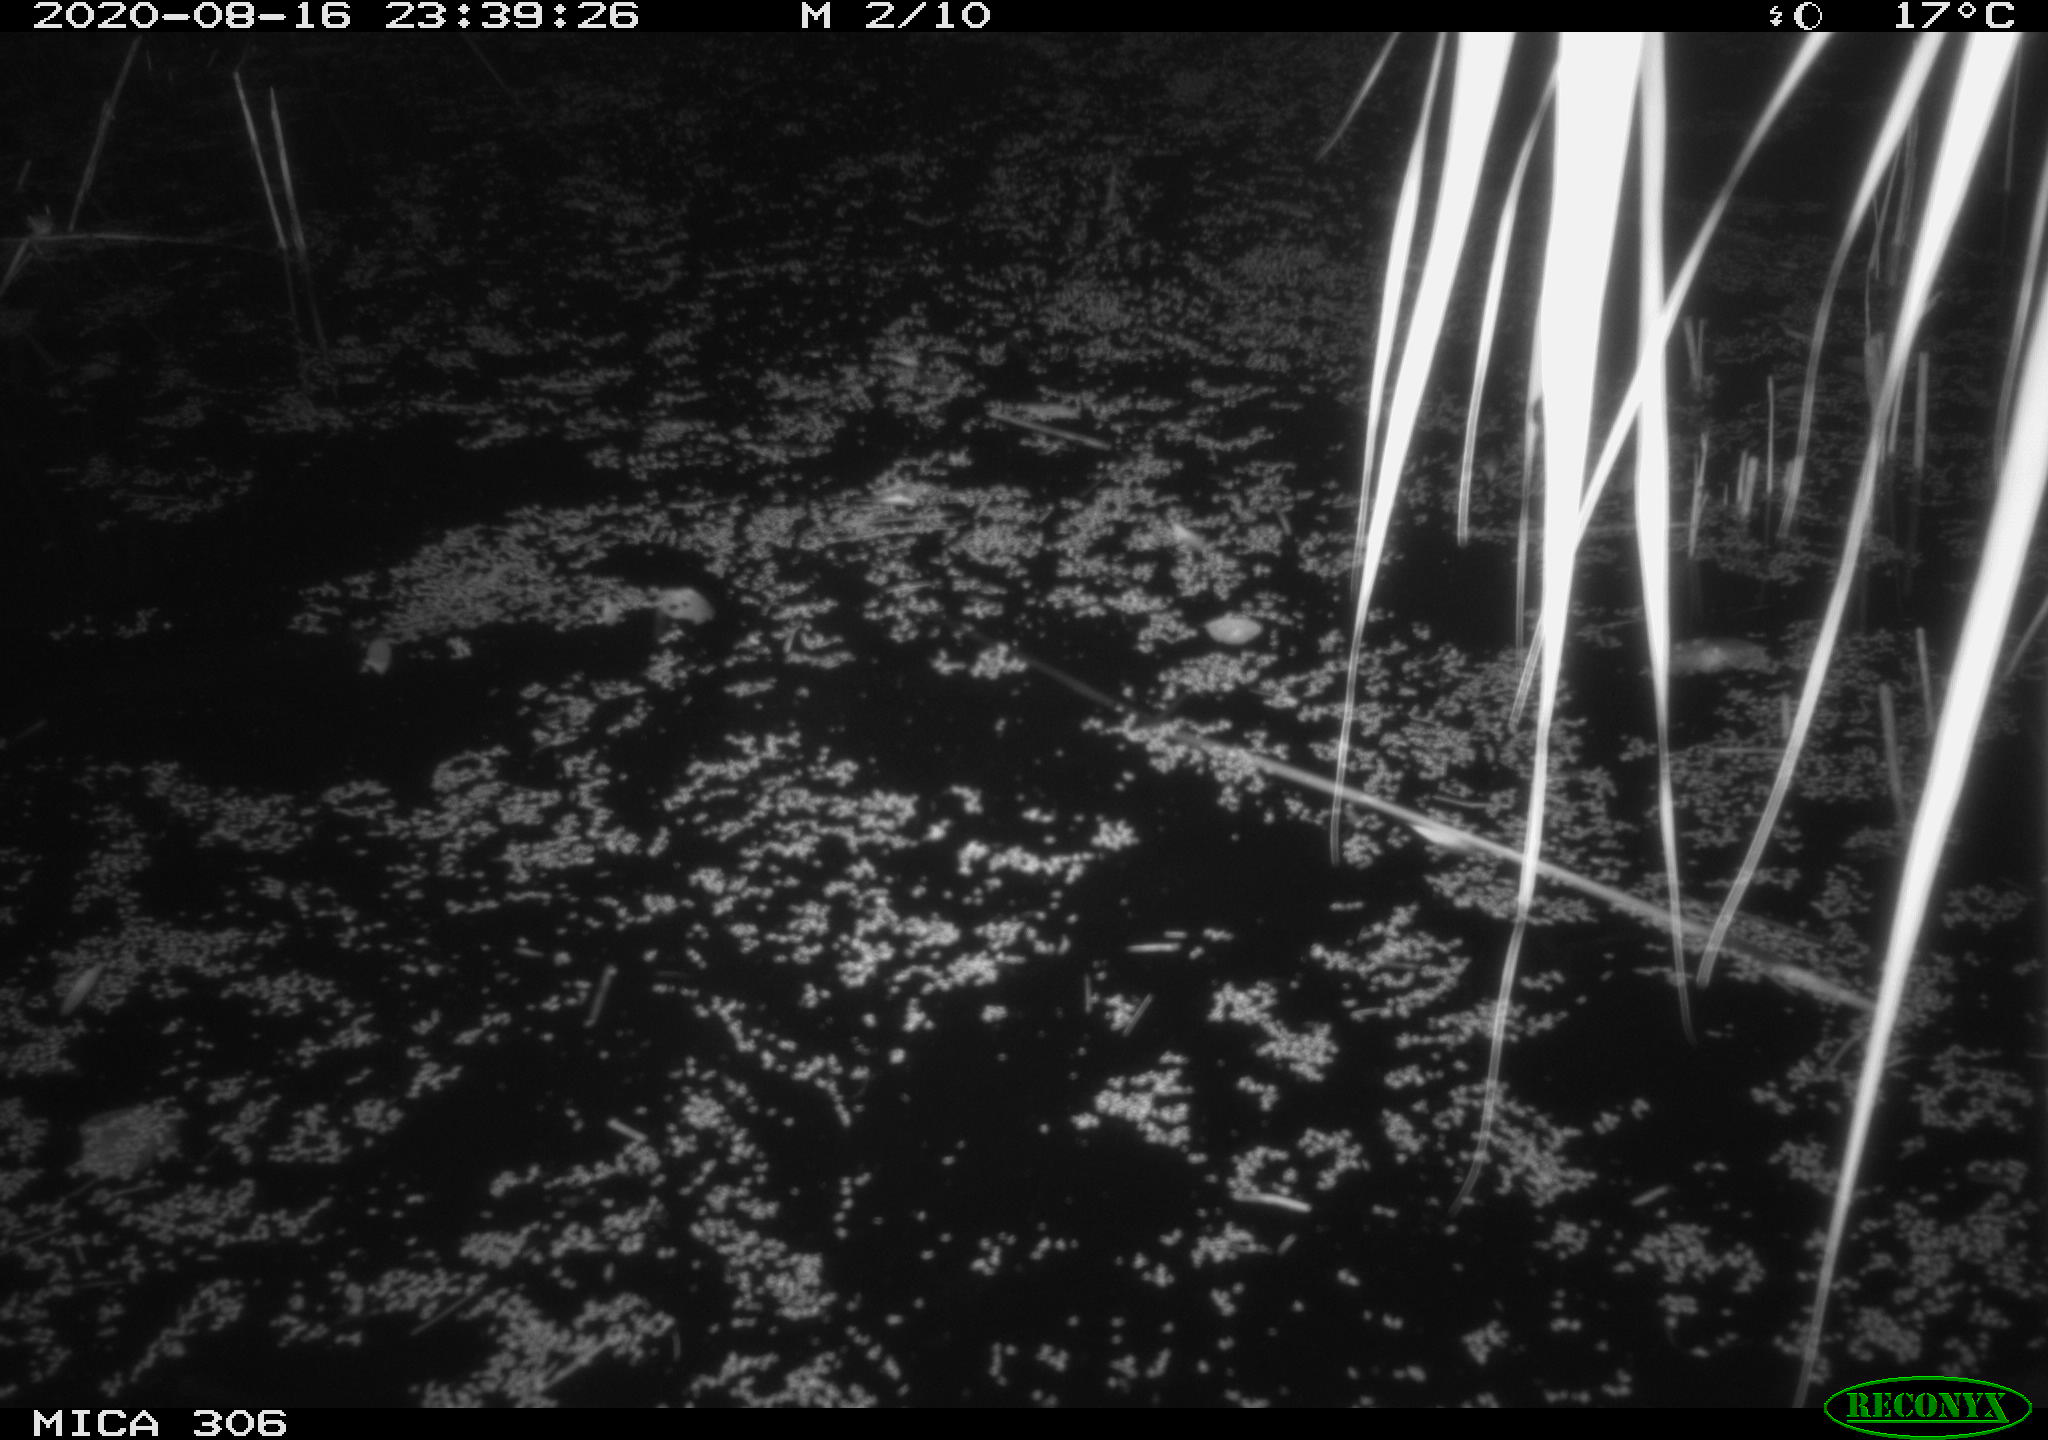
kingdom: Animalia
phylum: Chordata
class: Mammalia
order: Rodentia
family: Muridae
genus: Rattus
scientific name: Rattus norvegicus
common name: Brown rat
